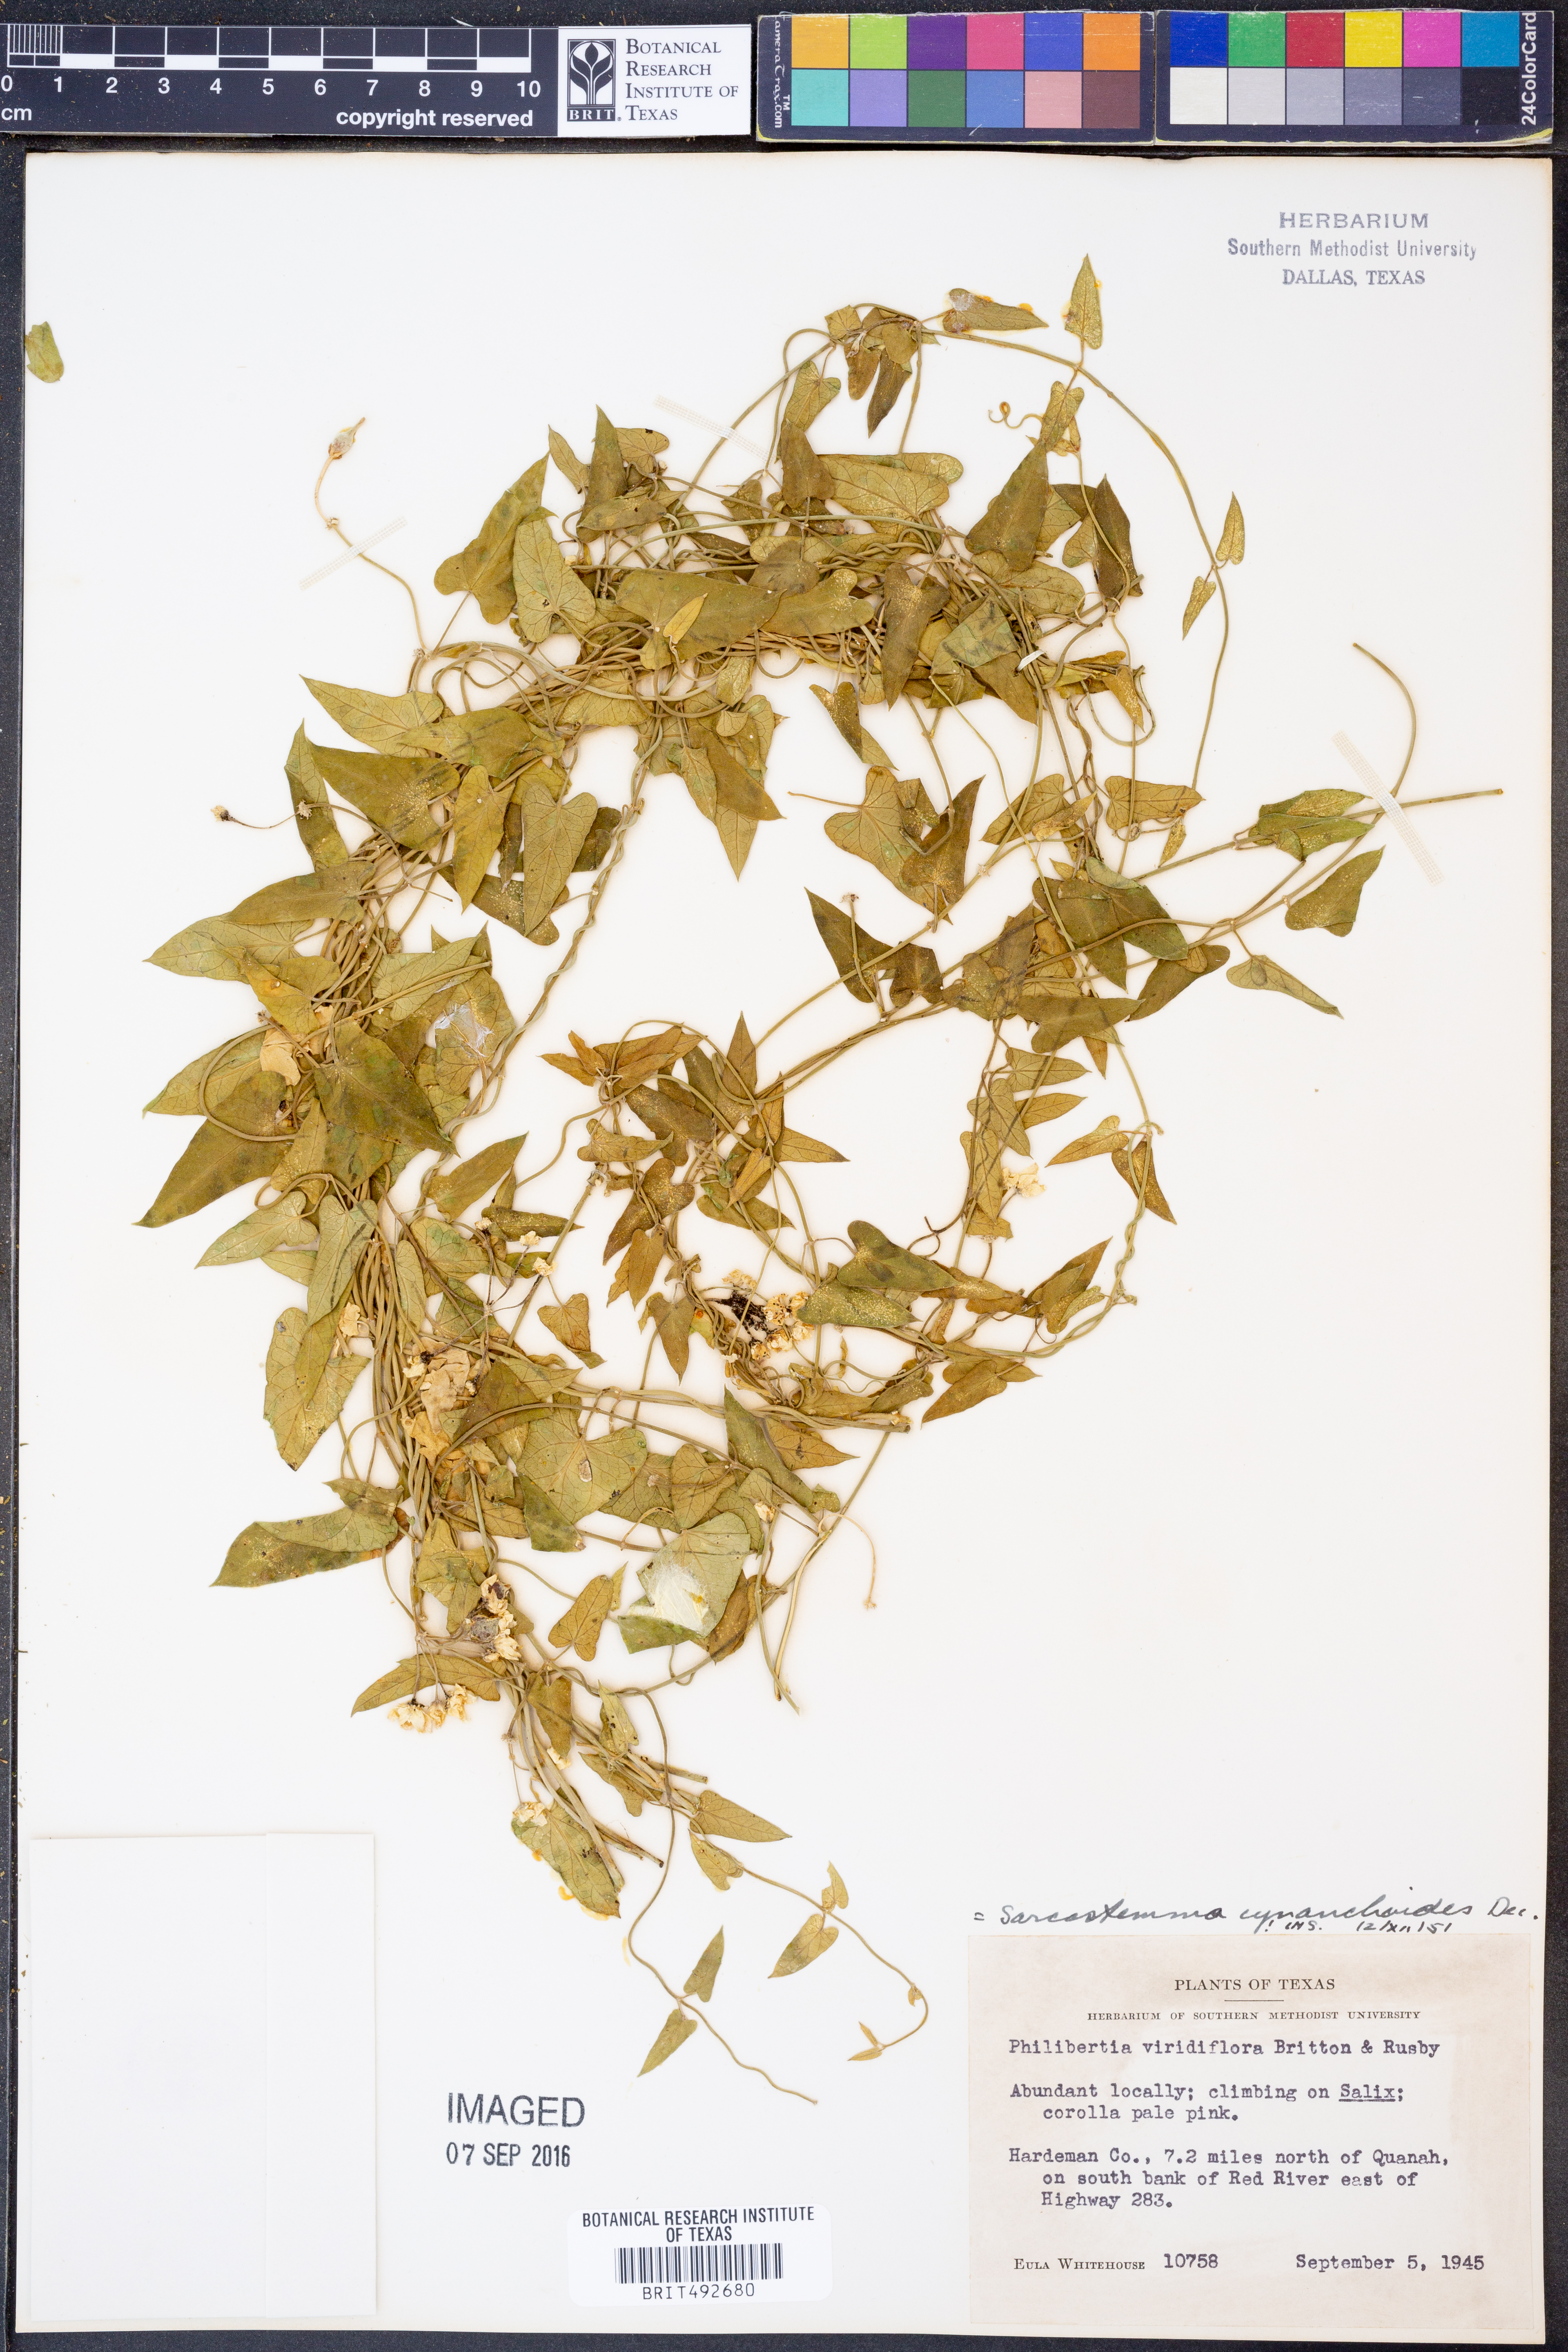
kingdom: Plantae
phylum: Tracheophyta
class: Magnoliopsida
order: Gentianales
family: Apocynaceae
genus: Funastrum
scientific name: Funastrum cynanchoides
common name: Climbing-milkweed
